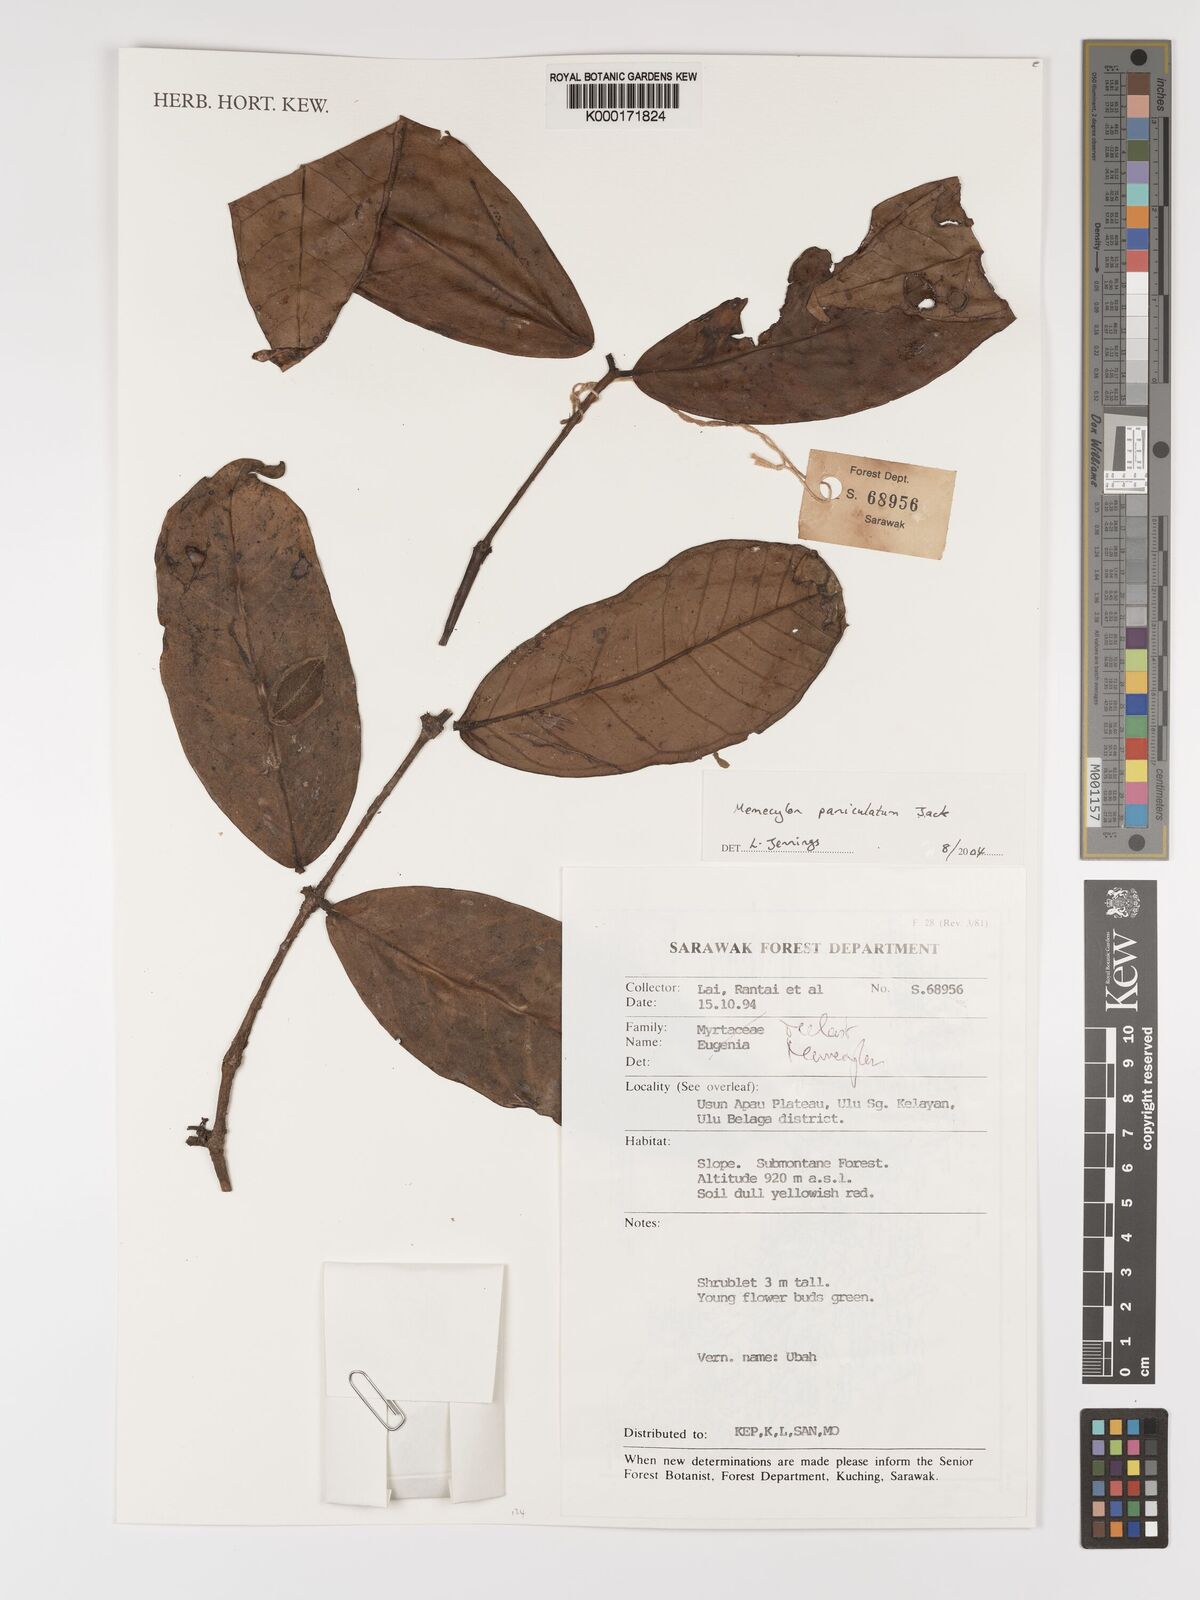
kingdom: Plantae
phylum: Tracheophyta
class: Magnoliopsida
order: Myrtales
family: Melastomataceae
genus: Memecylon
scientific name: Memecylon paniculatum
